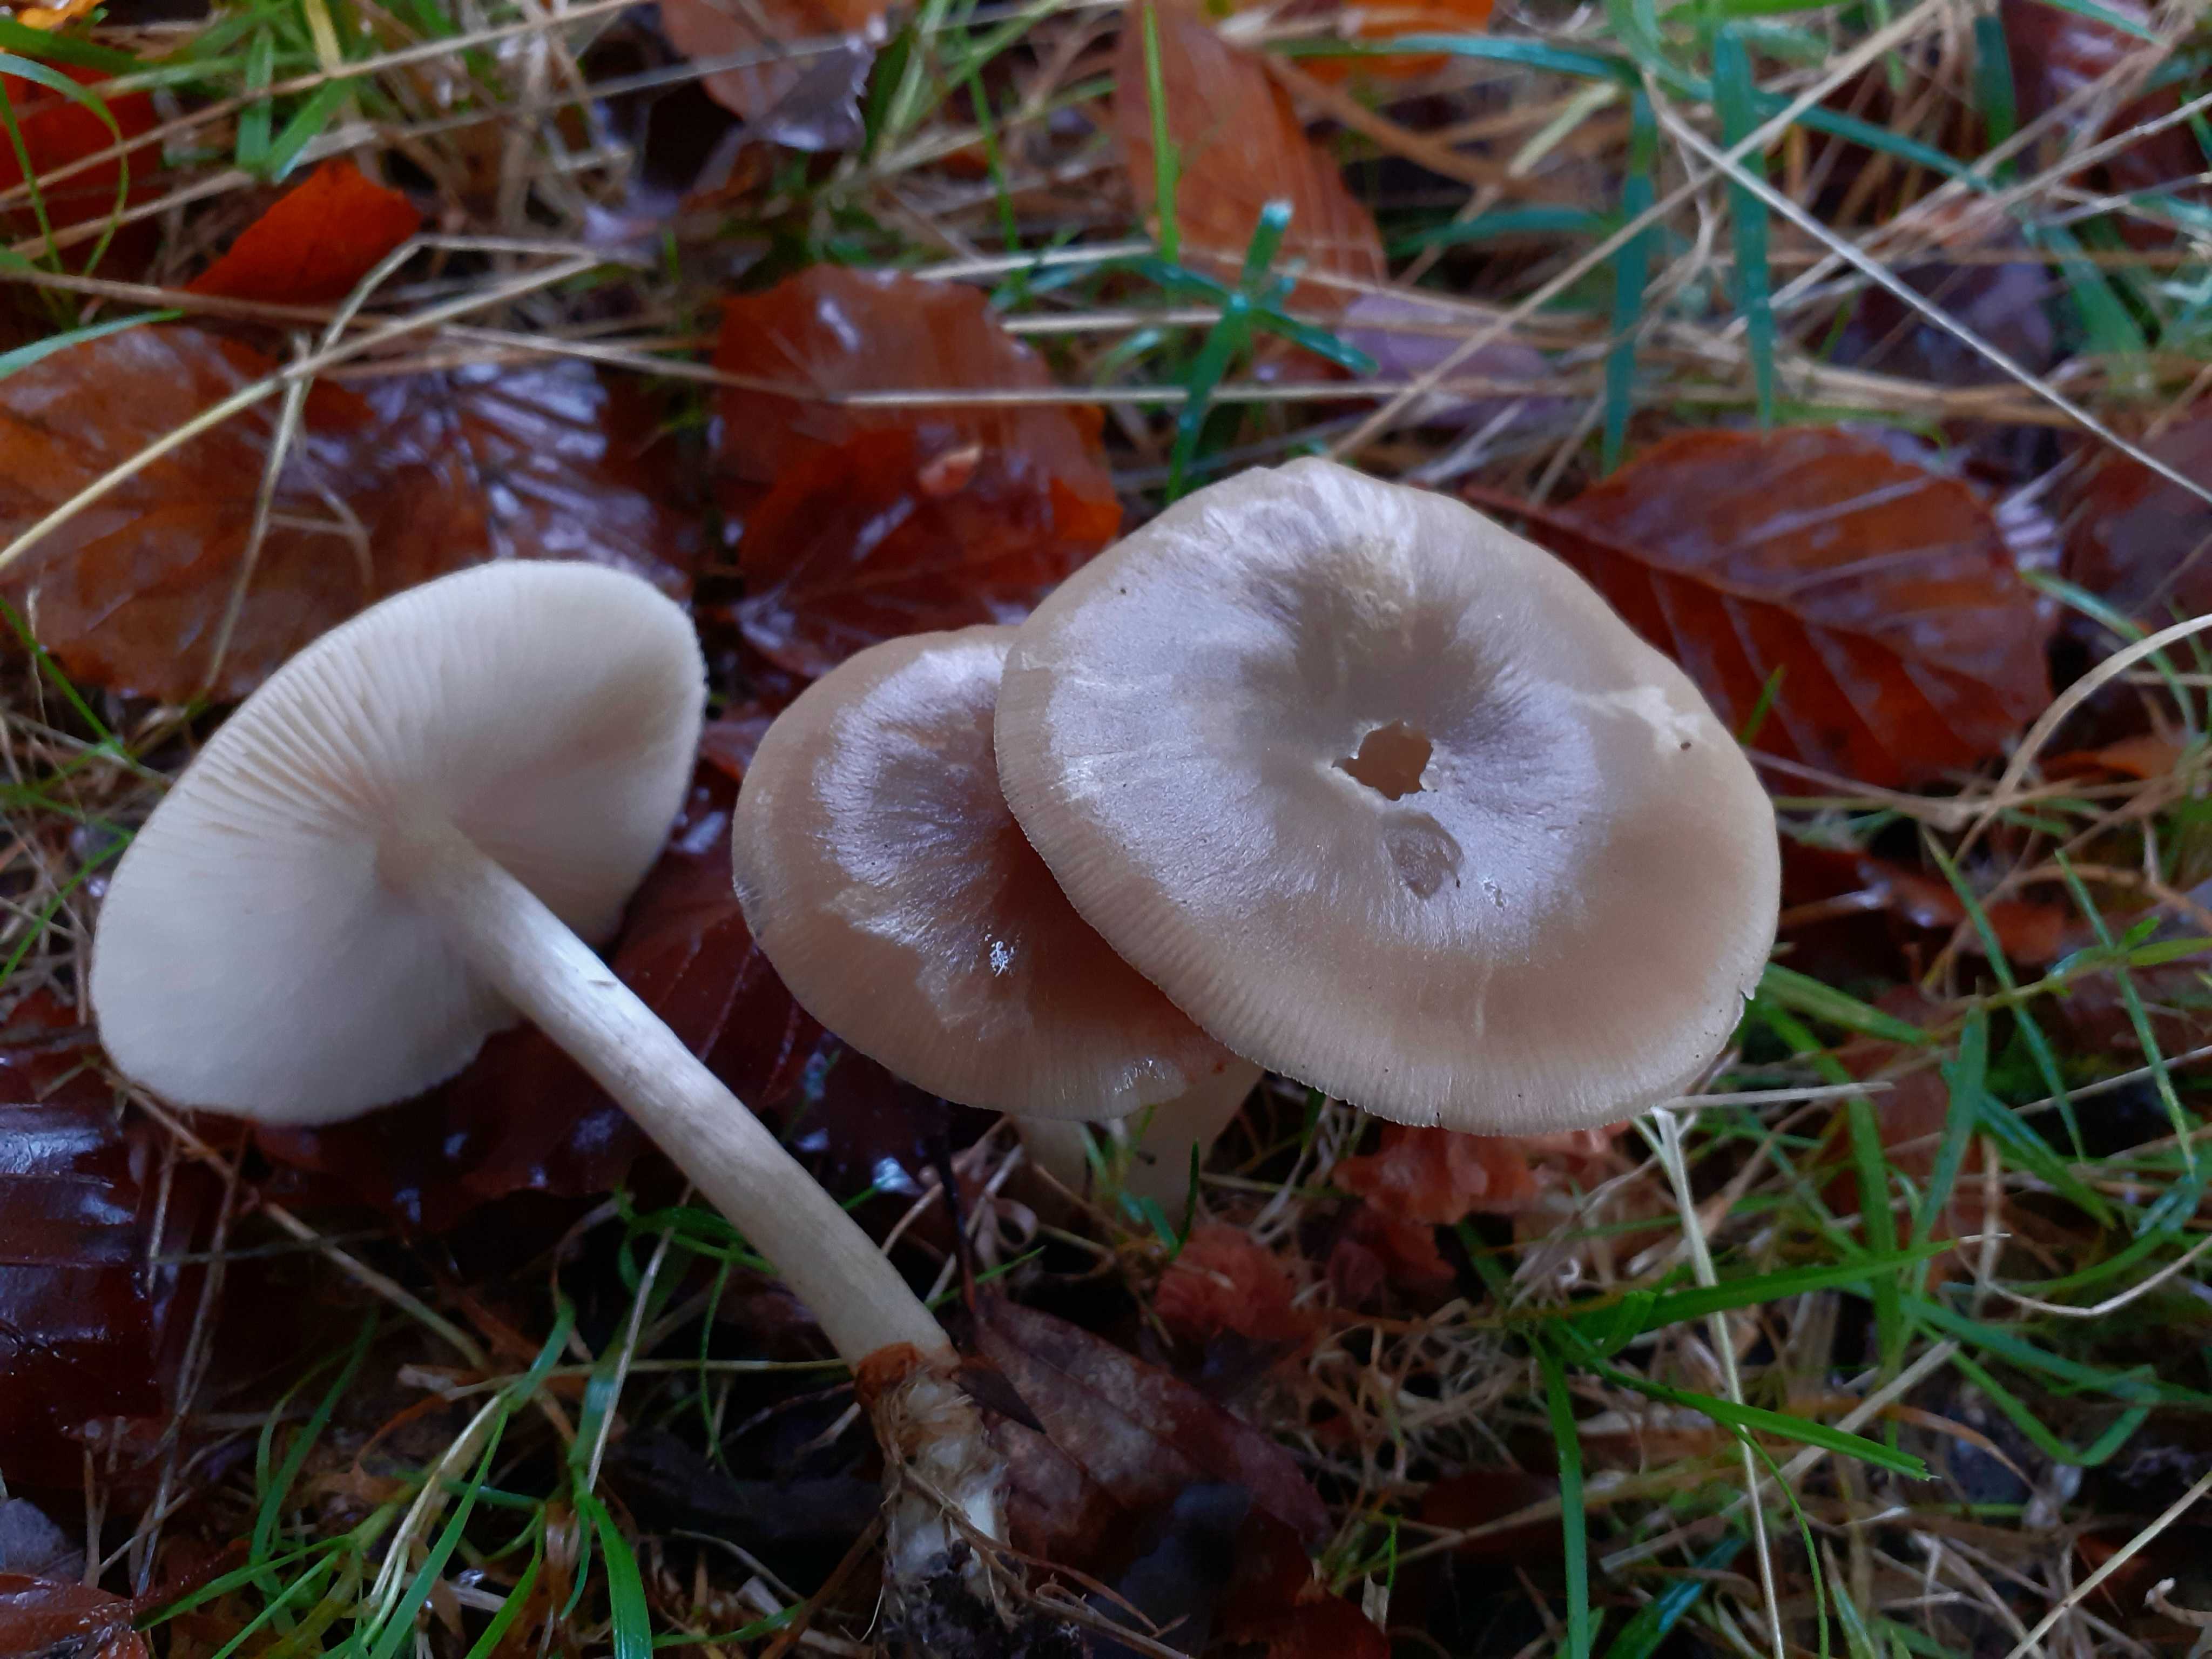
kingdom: Fungi
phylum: Basidiomycota
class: Agaricomycetes
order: Agaricales
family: Entolomataceae
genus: Entoloma
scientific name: Entoloma rhodopolium
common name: skov-rødblad
